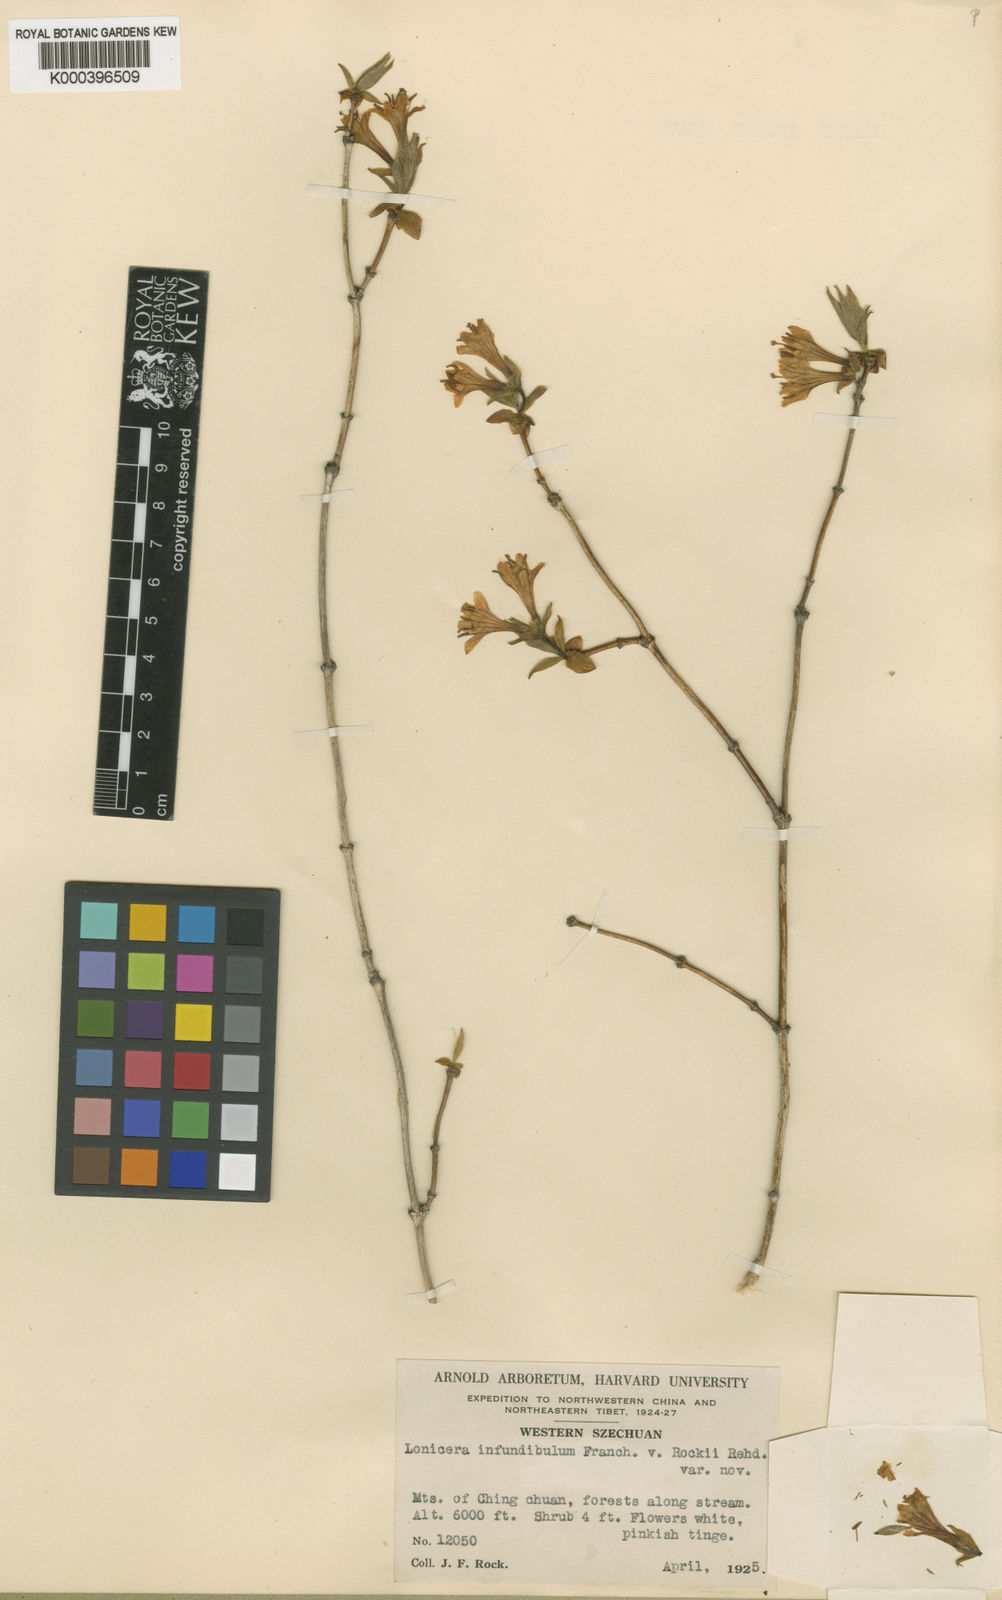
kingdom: Plantae
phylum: Tracheophyta
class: Magnoliopsida
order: Dipsacales
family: Caprifoliaceae
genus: Lonicera
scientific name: Lonicera elisae
